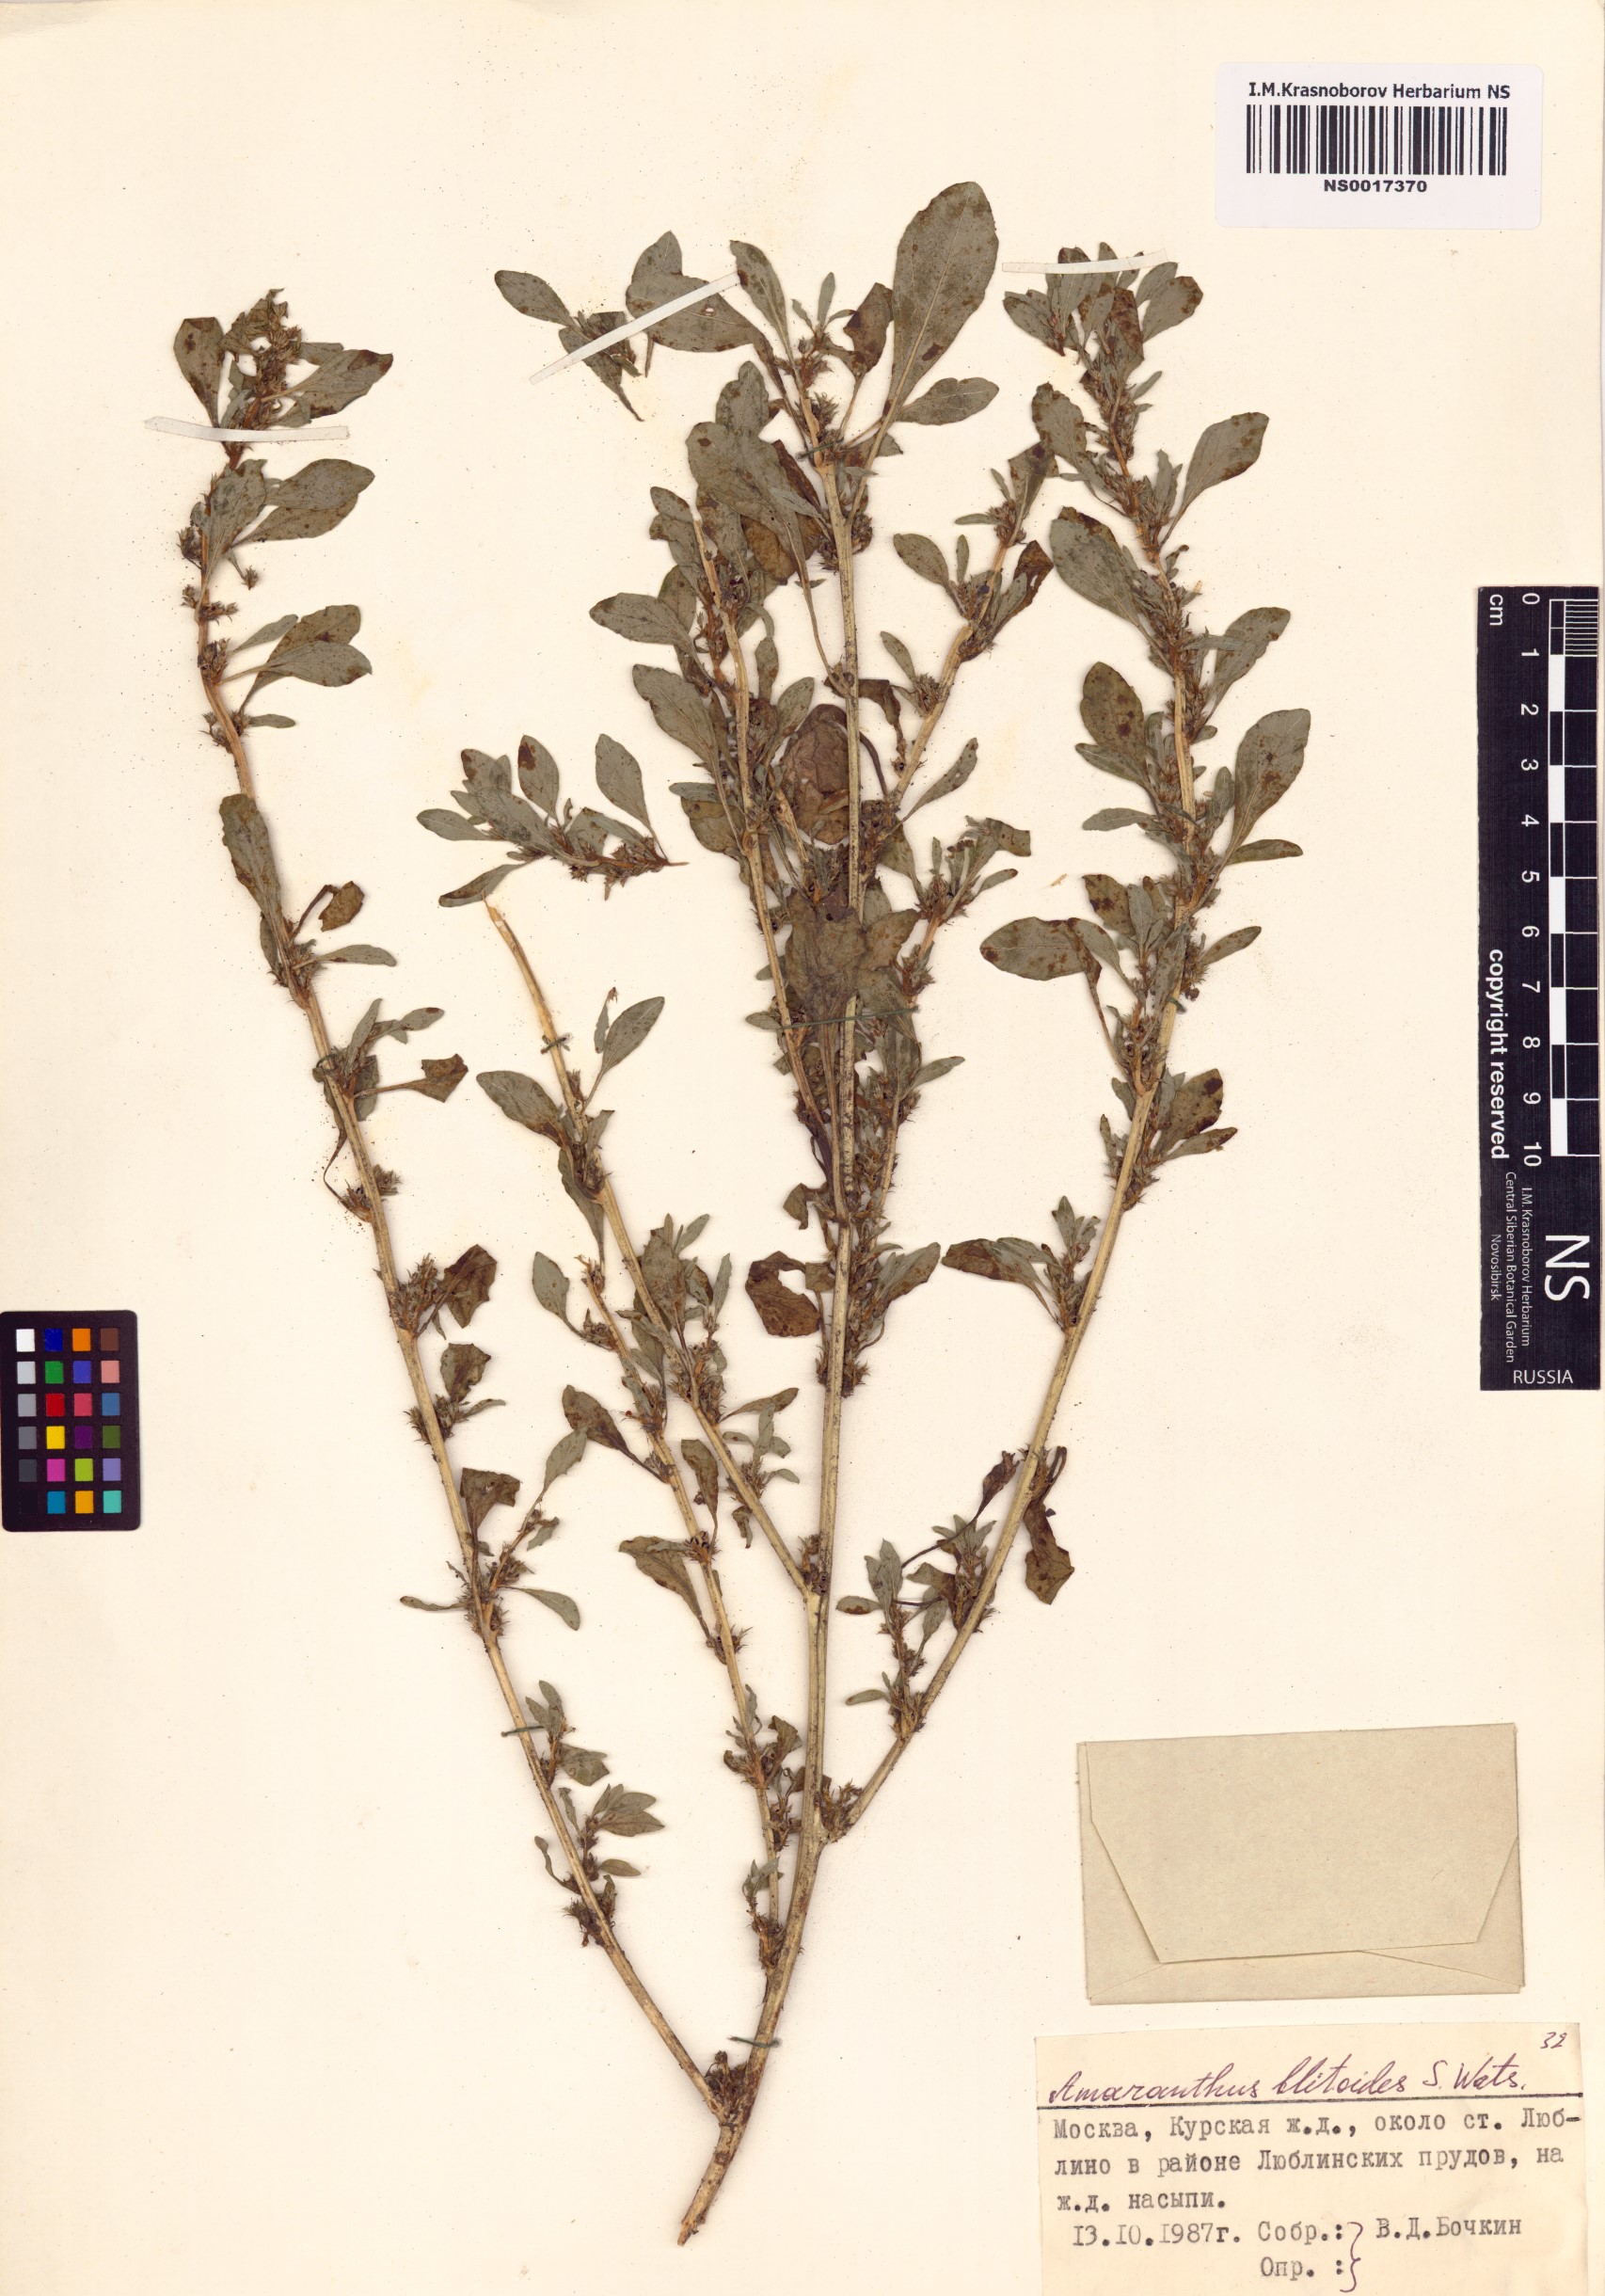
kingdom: Plantae
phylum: Tracheophyta
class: Magnoliopsida
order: Caryophyllales
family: Amaranthaceae
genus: Amaranthus
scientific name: Amaranthus blitoides
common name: Prostrate pigweed
